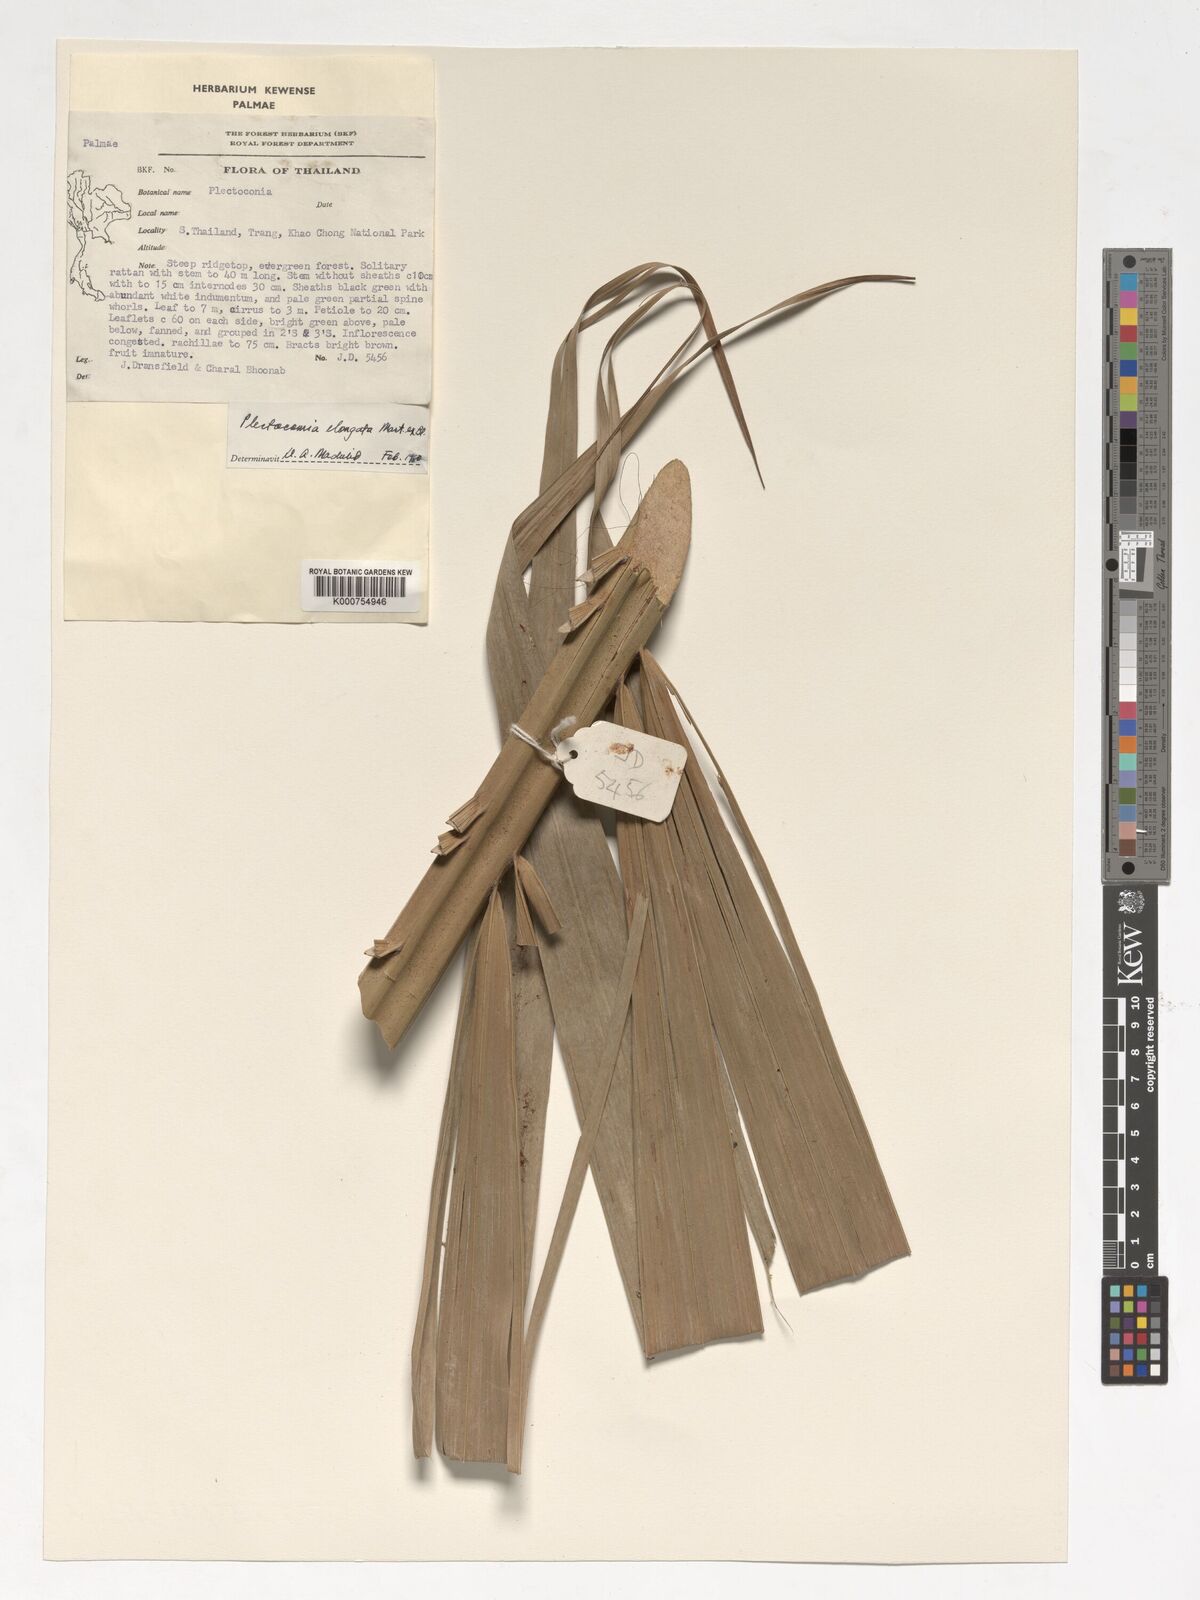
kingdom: Plantae
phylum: Tracheophyta
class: Liliopsida
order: Arecales
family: Arecaceae
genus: Plectocomia
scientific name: Plectocomia elongata
